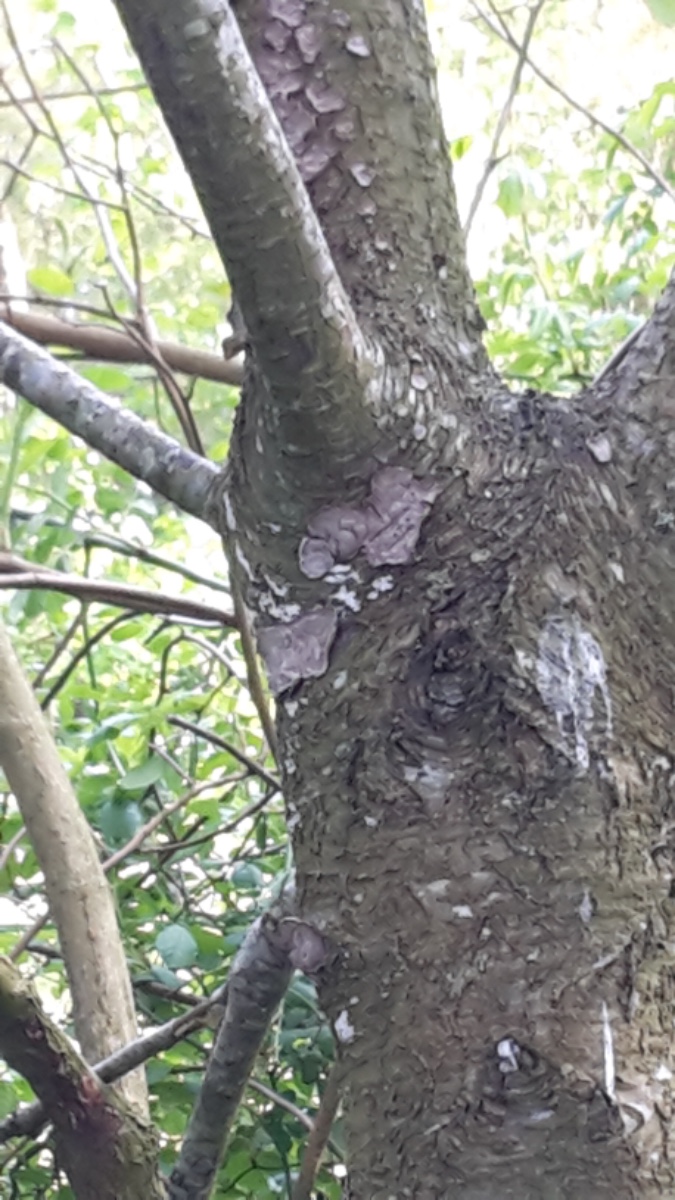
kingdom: Fungi
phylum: Basidiomycota
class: Agaricomycetes
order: Russulales
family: Stereaceae
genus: Stereum
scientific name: Stereum rugosum
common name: rynket lædersvamp
